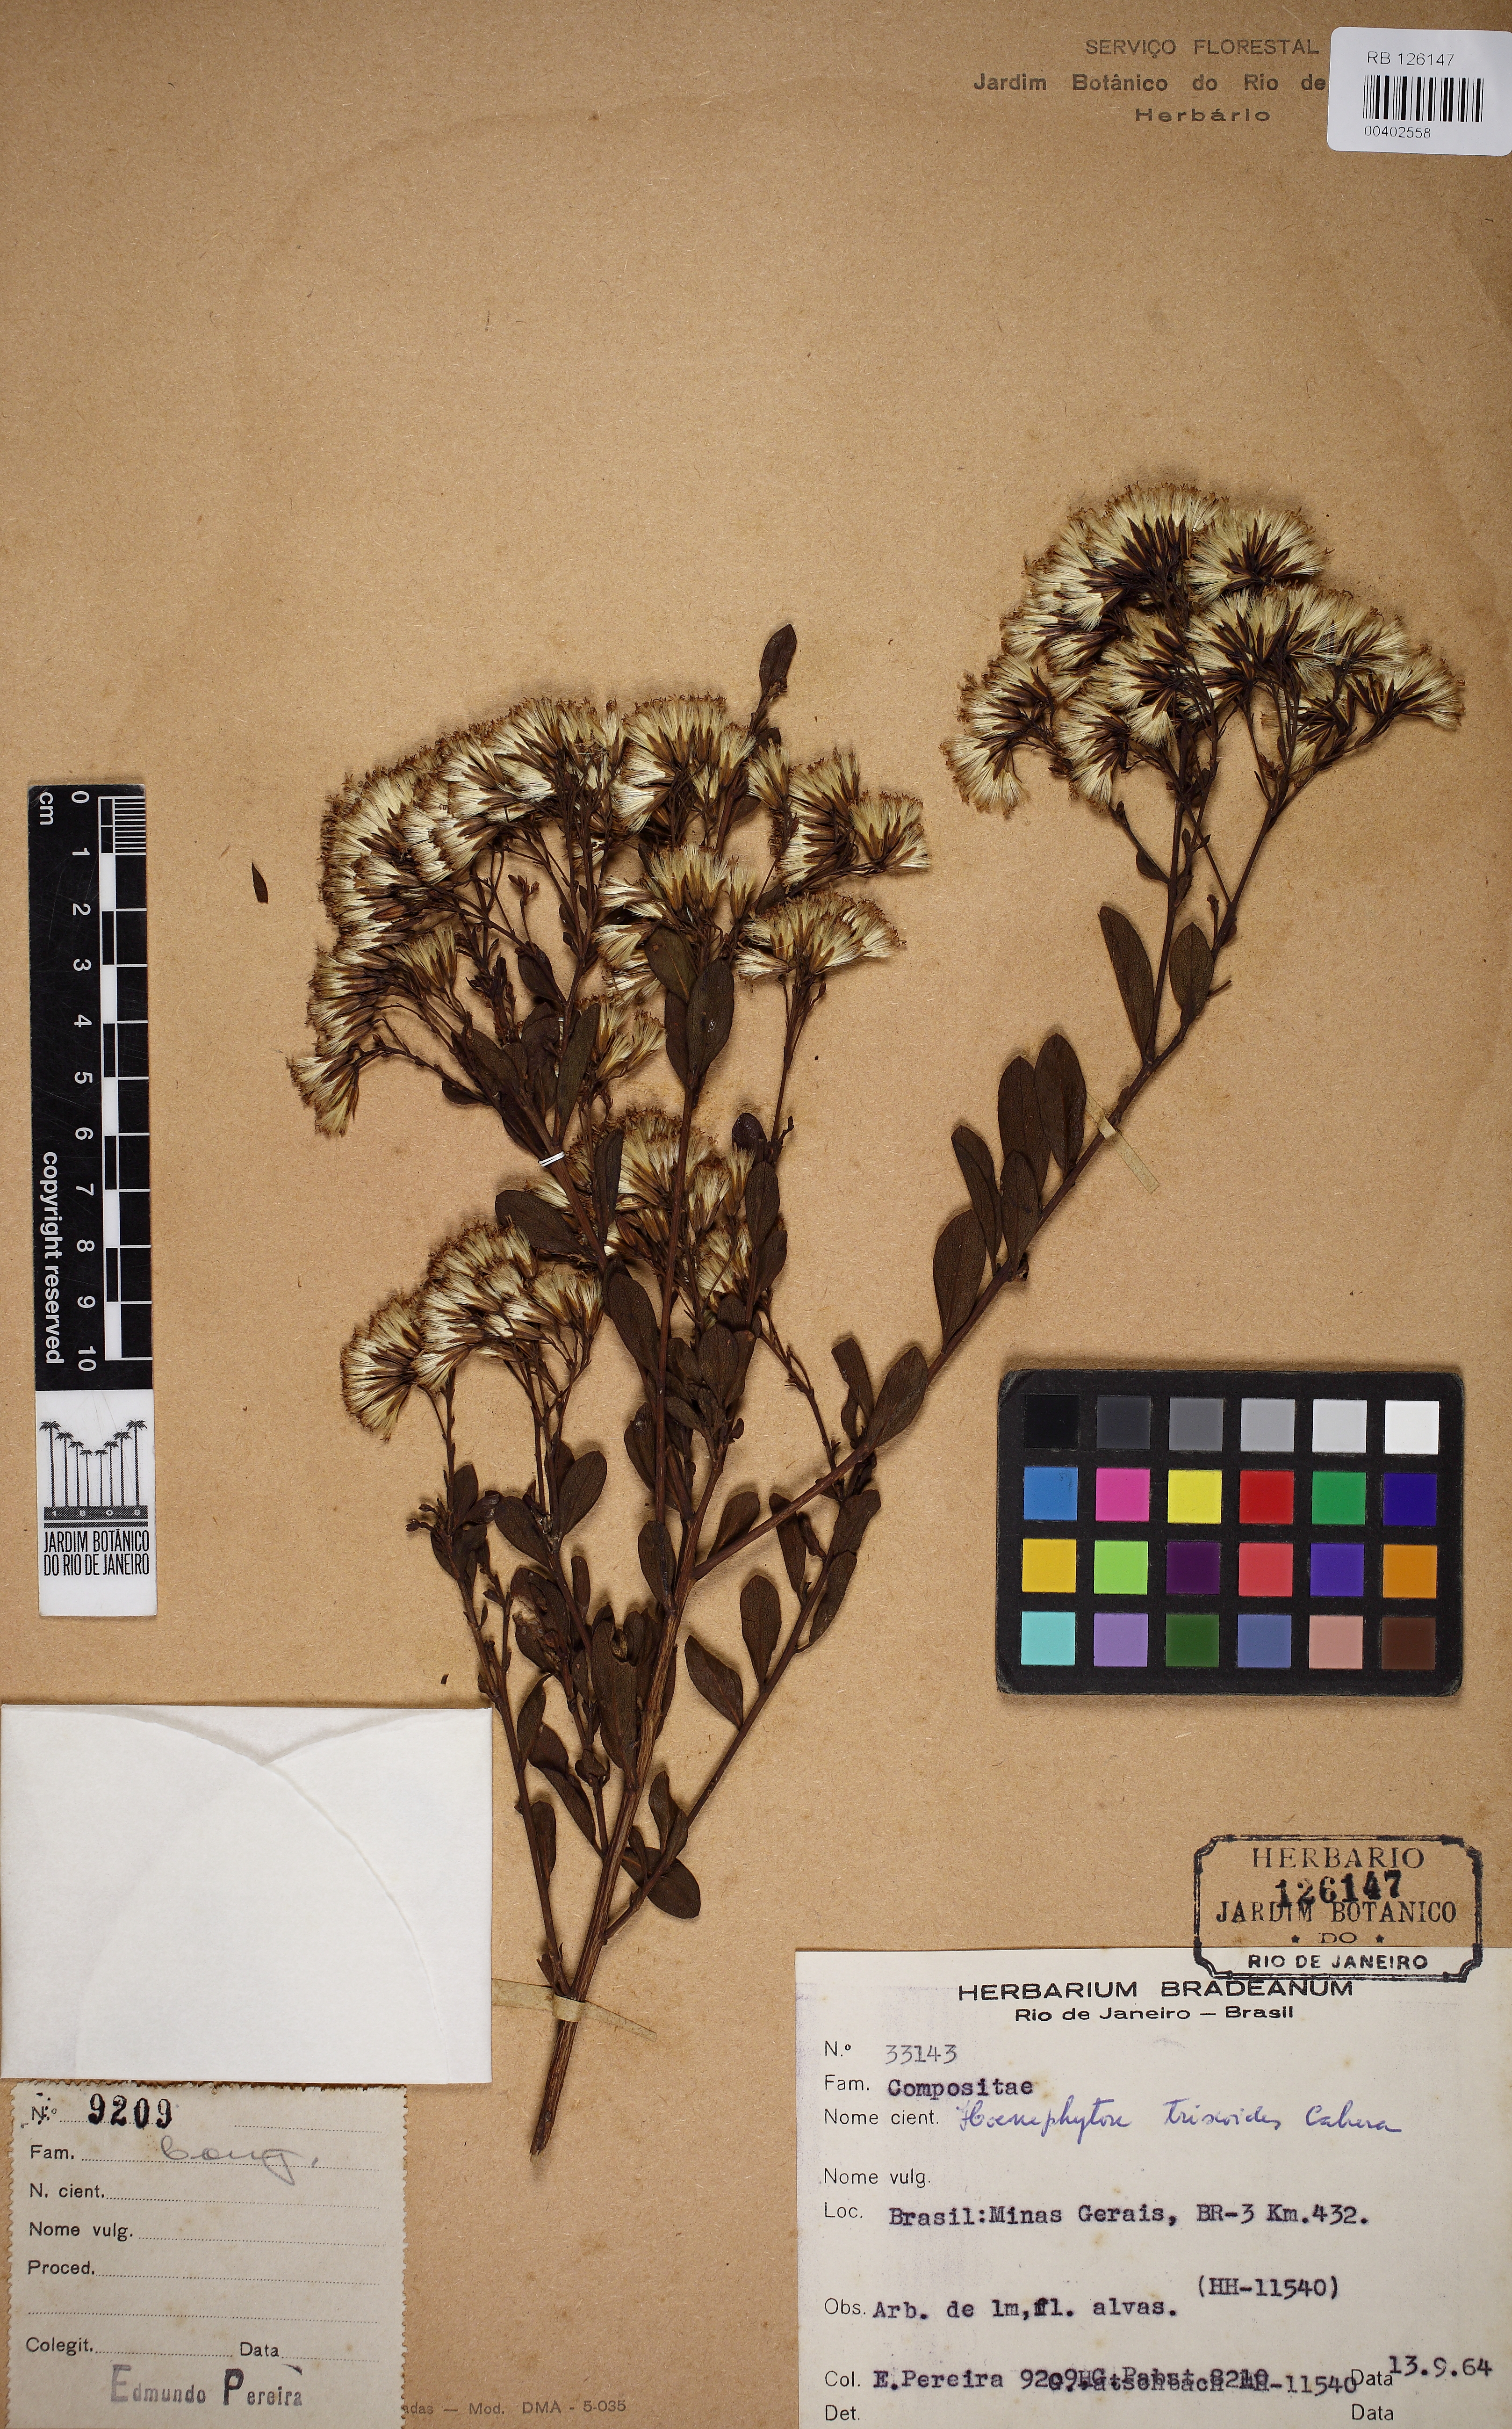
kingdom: Plantae
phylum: Tracheophyta
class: Magnoliopsida
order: Asterales
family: Asteraceae
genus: Hoehnephytum
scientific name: Hoehnephytum trixoides
